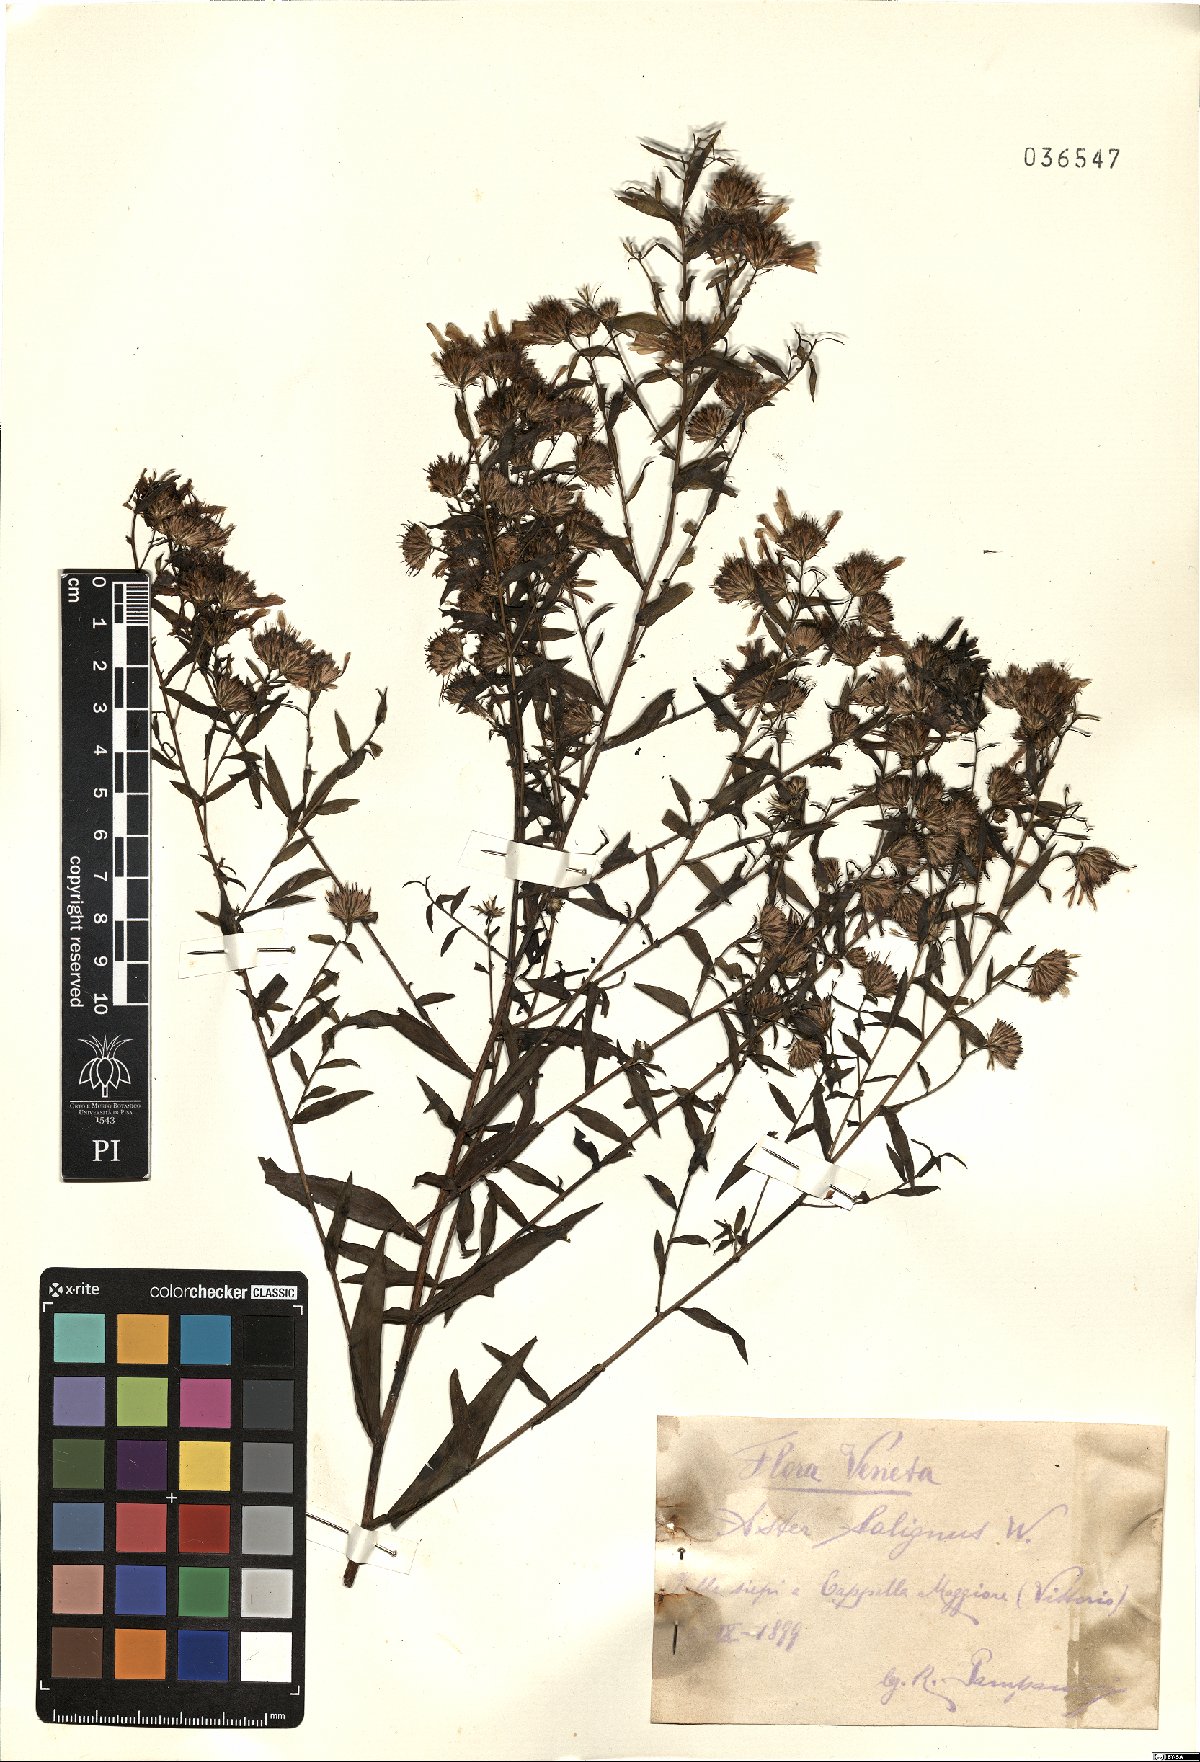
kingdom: Plantae
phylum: Tracheophyta
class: Magnoliopsida
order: Asterales
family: Asteraceae
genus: Symphyotrichum
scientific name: Symphyotrichum salignum
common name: Common michaelmas daisy
